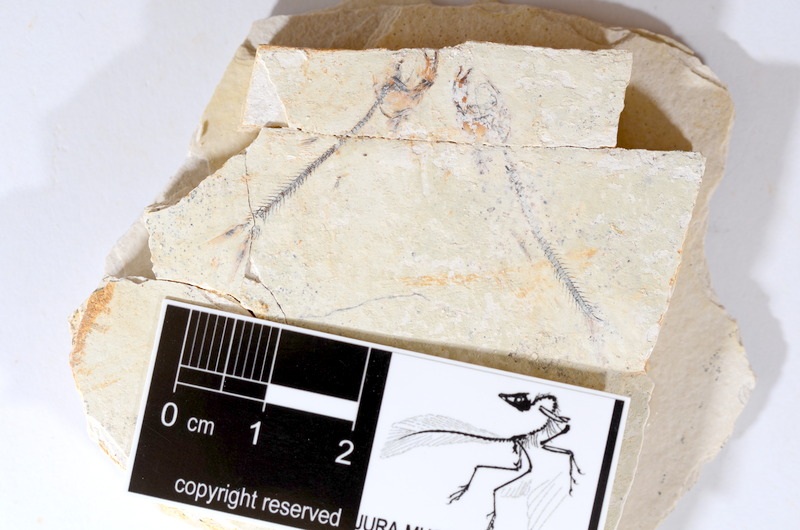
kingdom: Animalia
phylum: Chordata
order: Salmoniformes
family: Orthogonikleithridae
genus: Orthogonikleithrus
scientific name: Orthogonikleithrus hoelli
